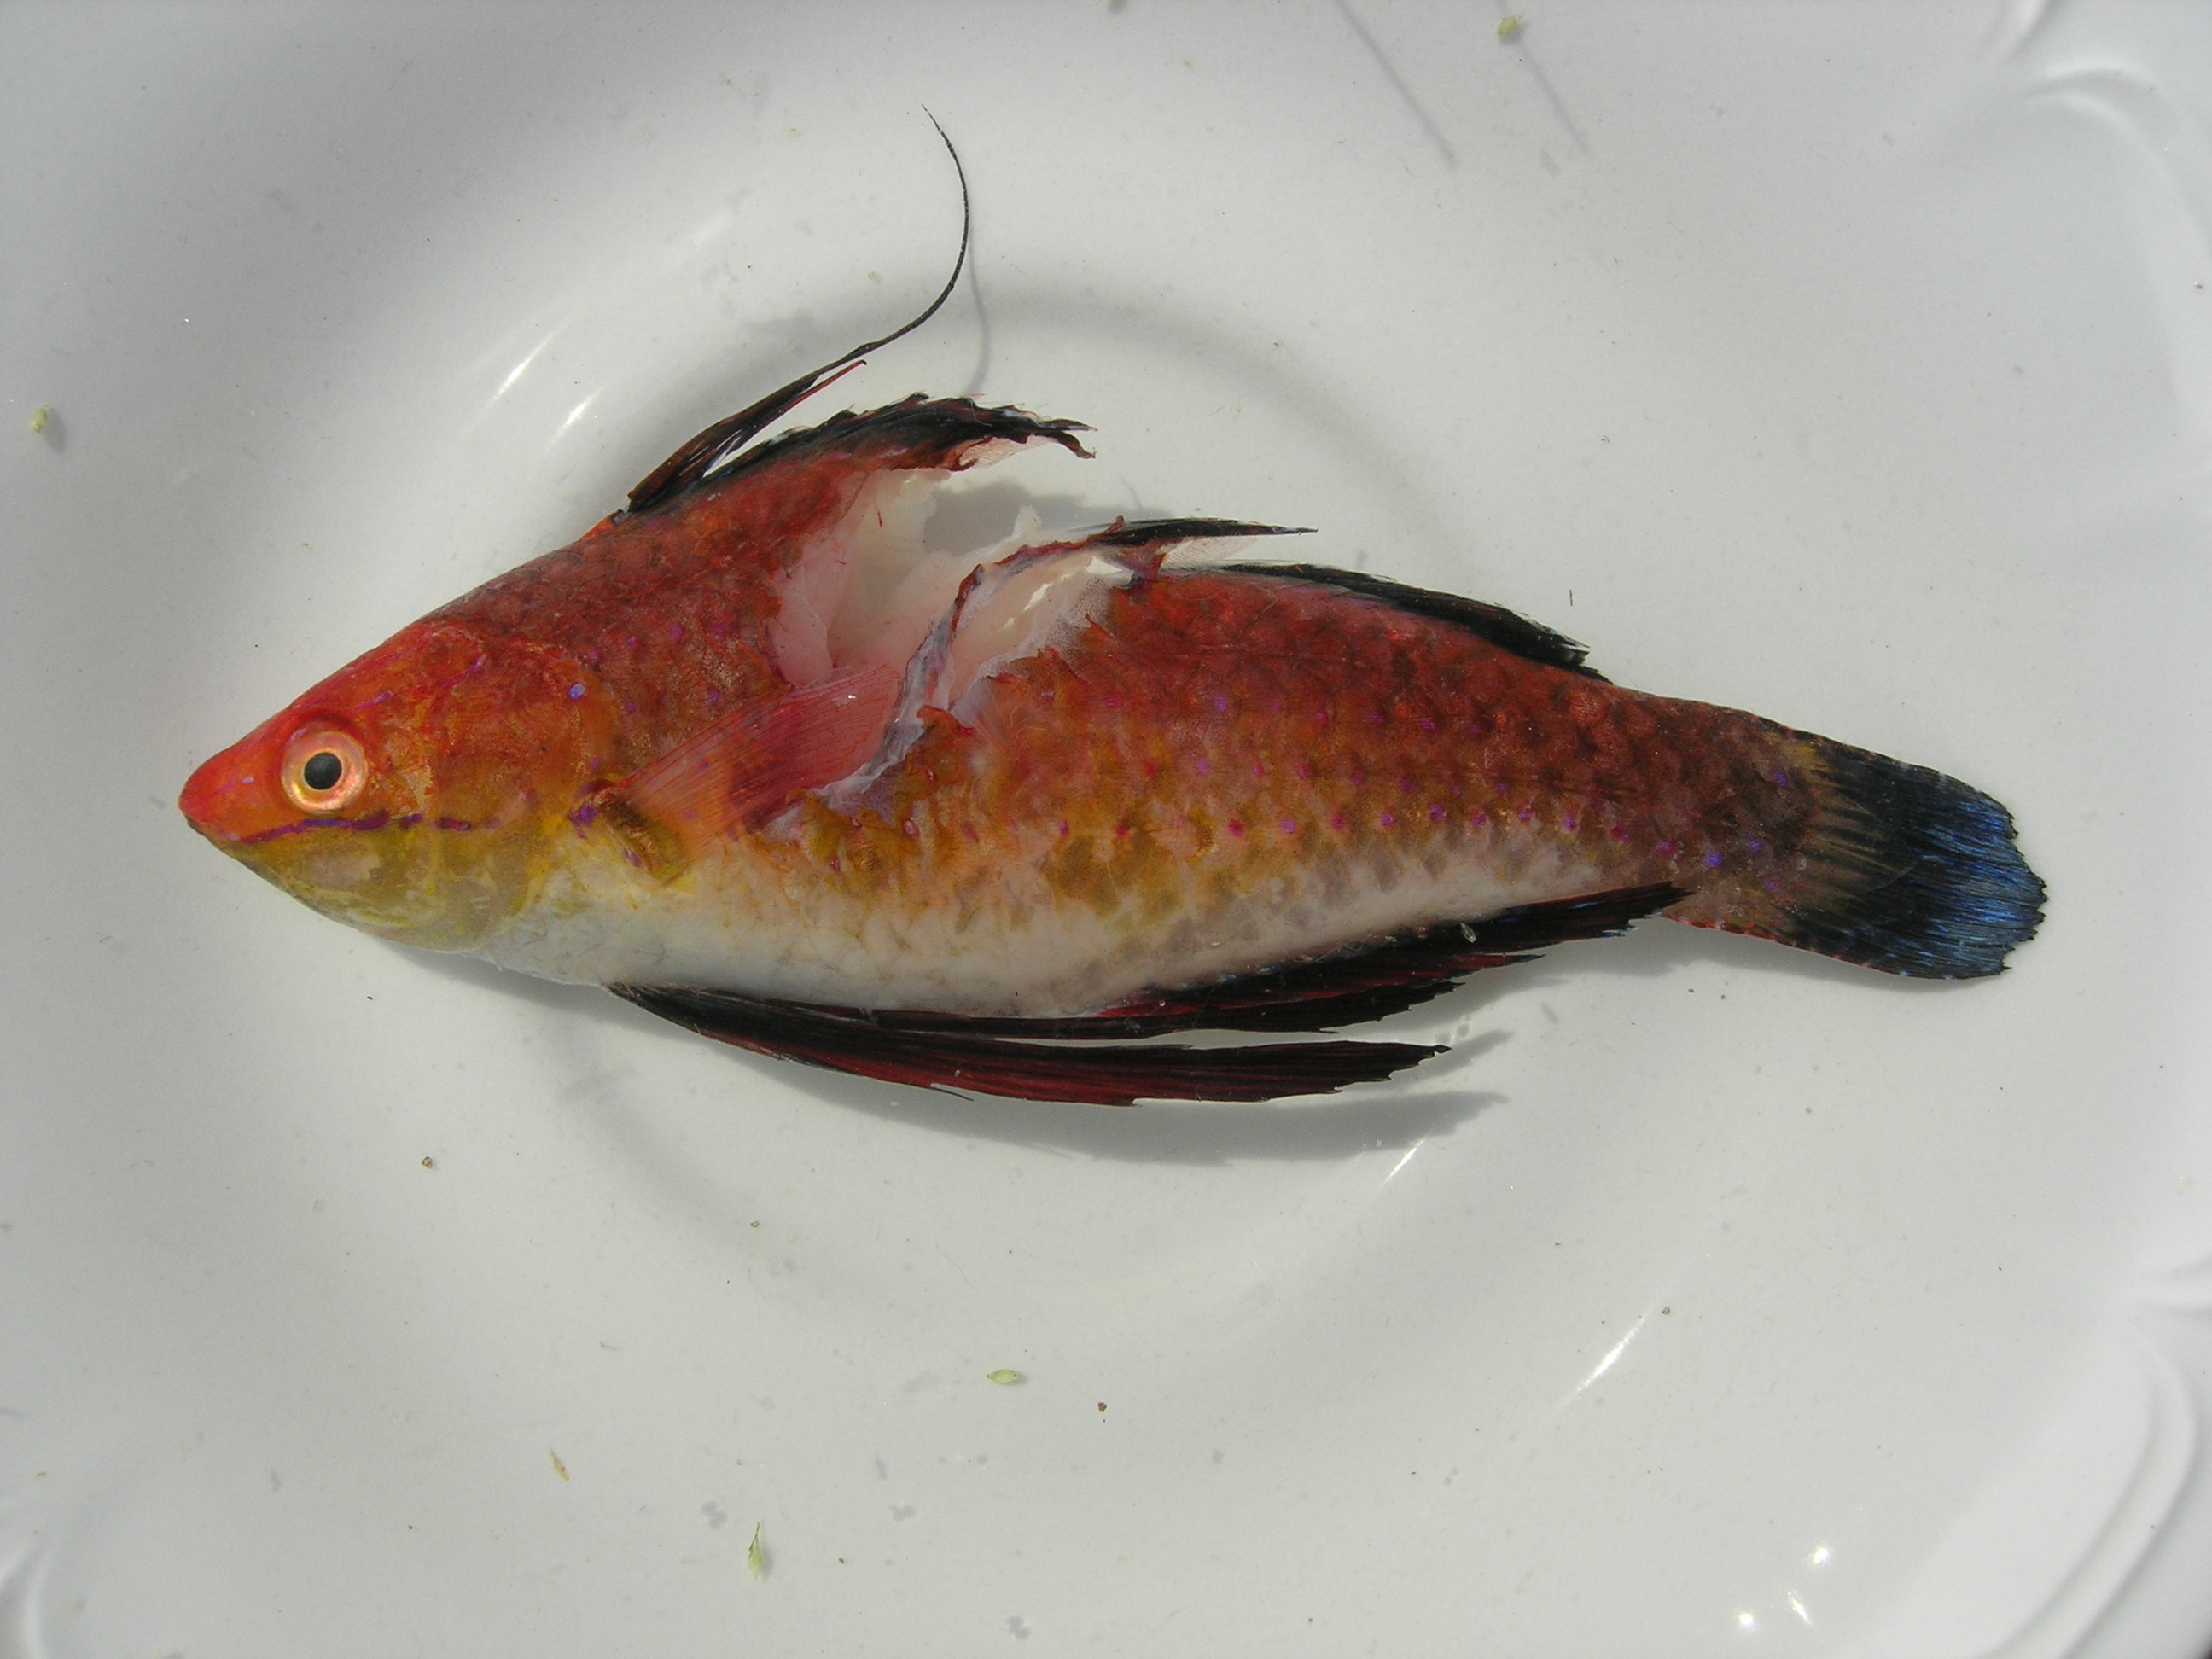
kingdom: Animalia
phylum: Chordata
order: Perciformes
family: Labridae
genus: Cirrhilabrus
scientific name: Cirrhilabrus rubriventralis
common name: Social wrasse
